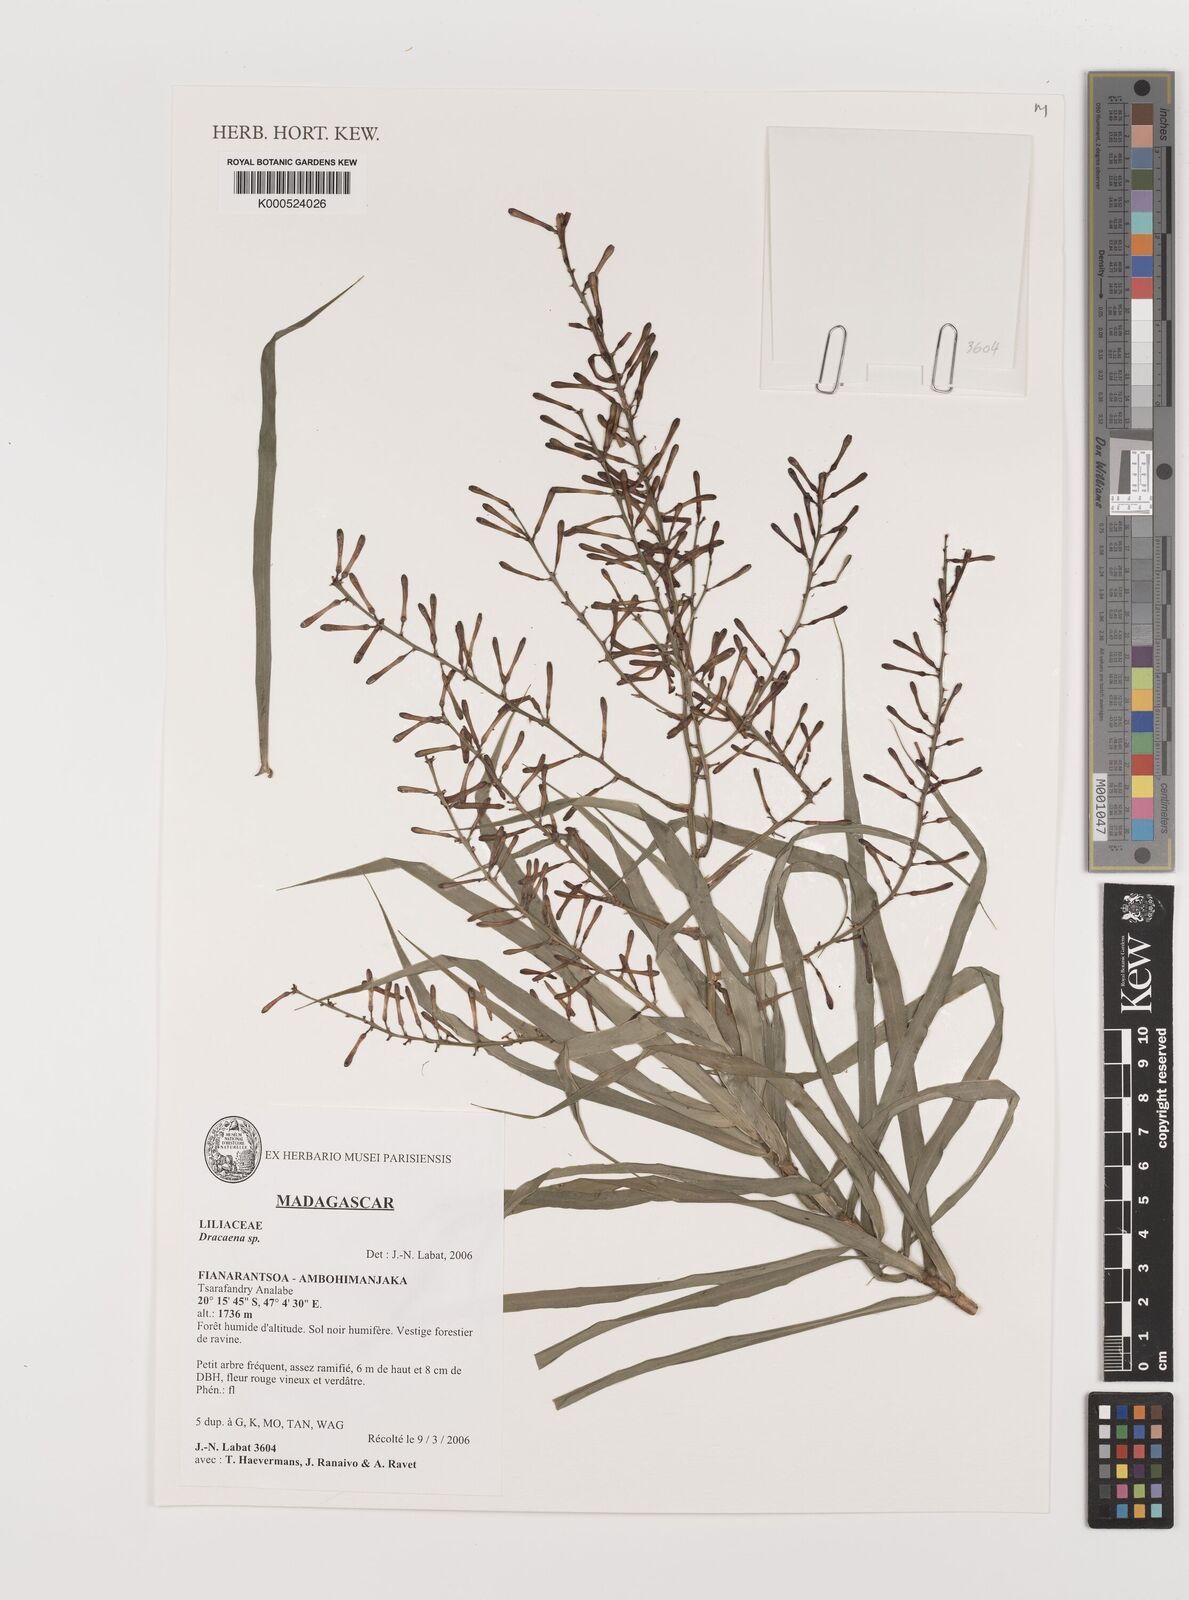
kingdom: Plantae
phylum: Tracheophyta
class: Liliopsida
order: Asparagales
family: Asparagaceae
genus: Dracaena
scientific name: Dracaena
